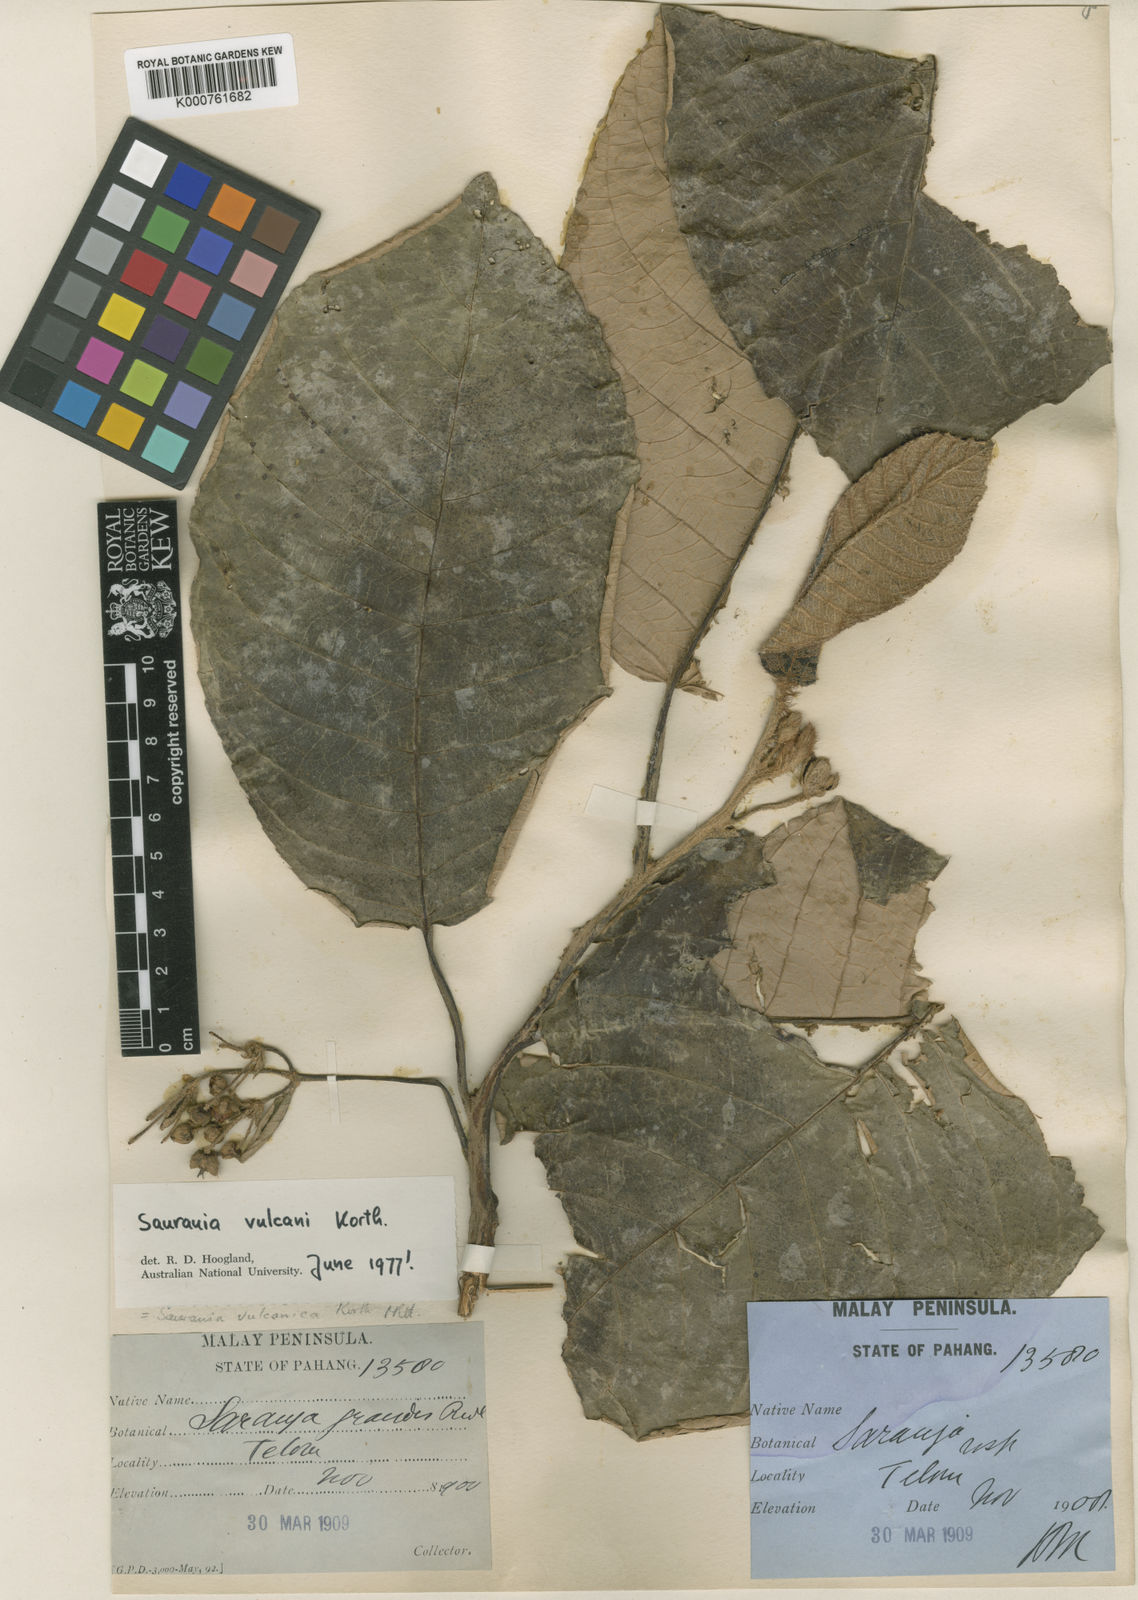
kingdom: Plantae
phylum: Tracheophyta
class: Magnoliopsida
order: Ericales
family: Actinidiaceae
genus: Saurauia
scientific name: Saurauia vulcani
